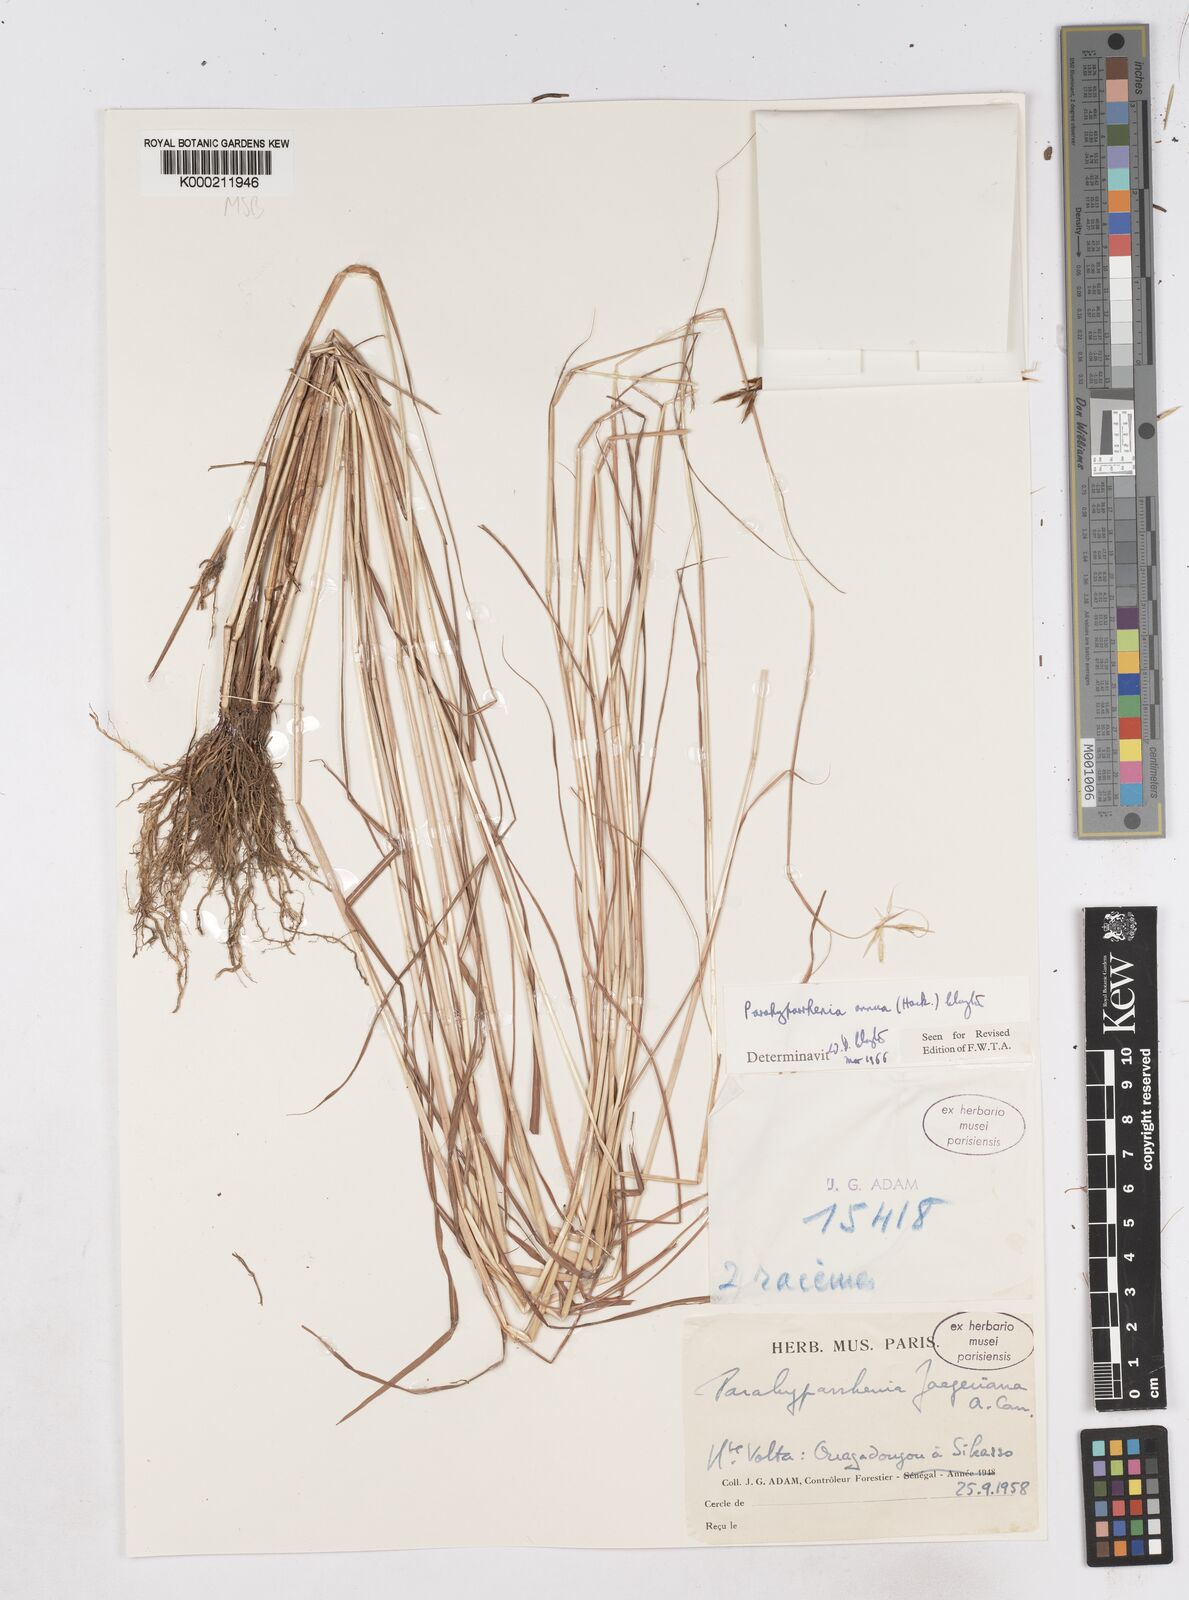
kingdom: Plantae
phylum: Tracheophyta
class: Liliopsida
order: Poales
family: Poaceae
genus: Parahyparrhenia
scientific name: Parahyparrhenia annua
